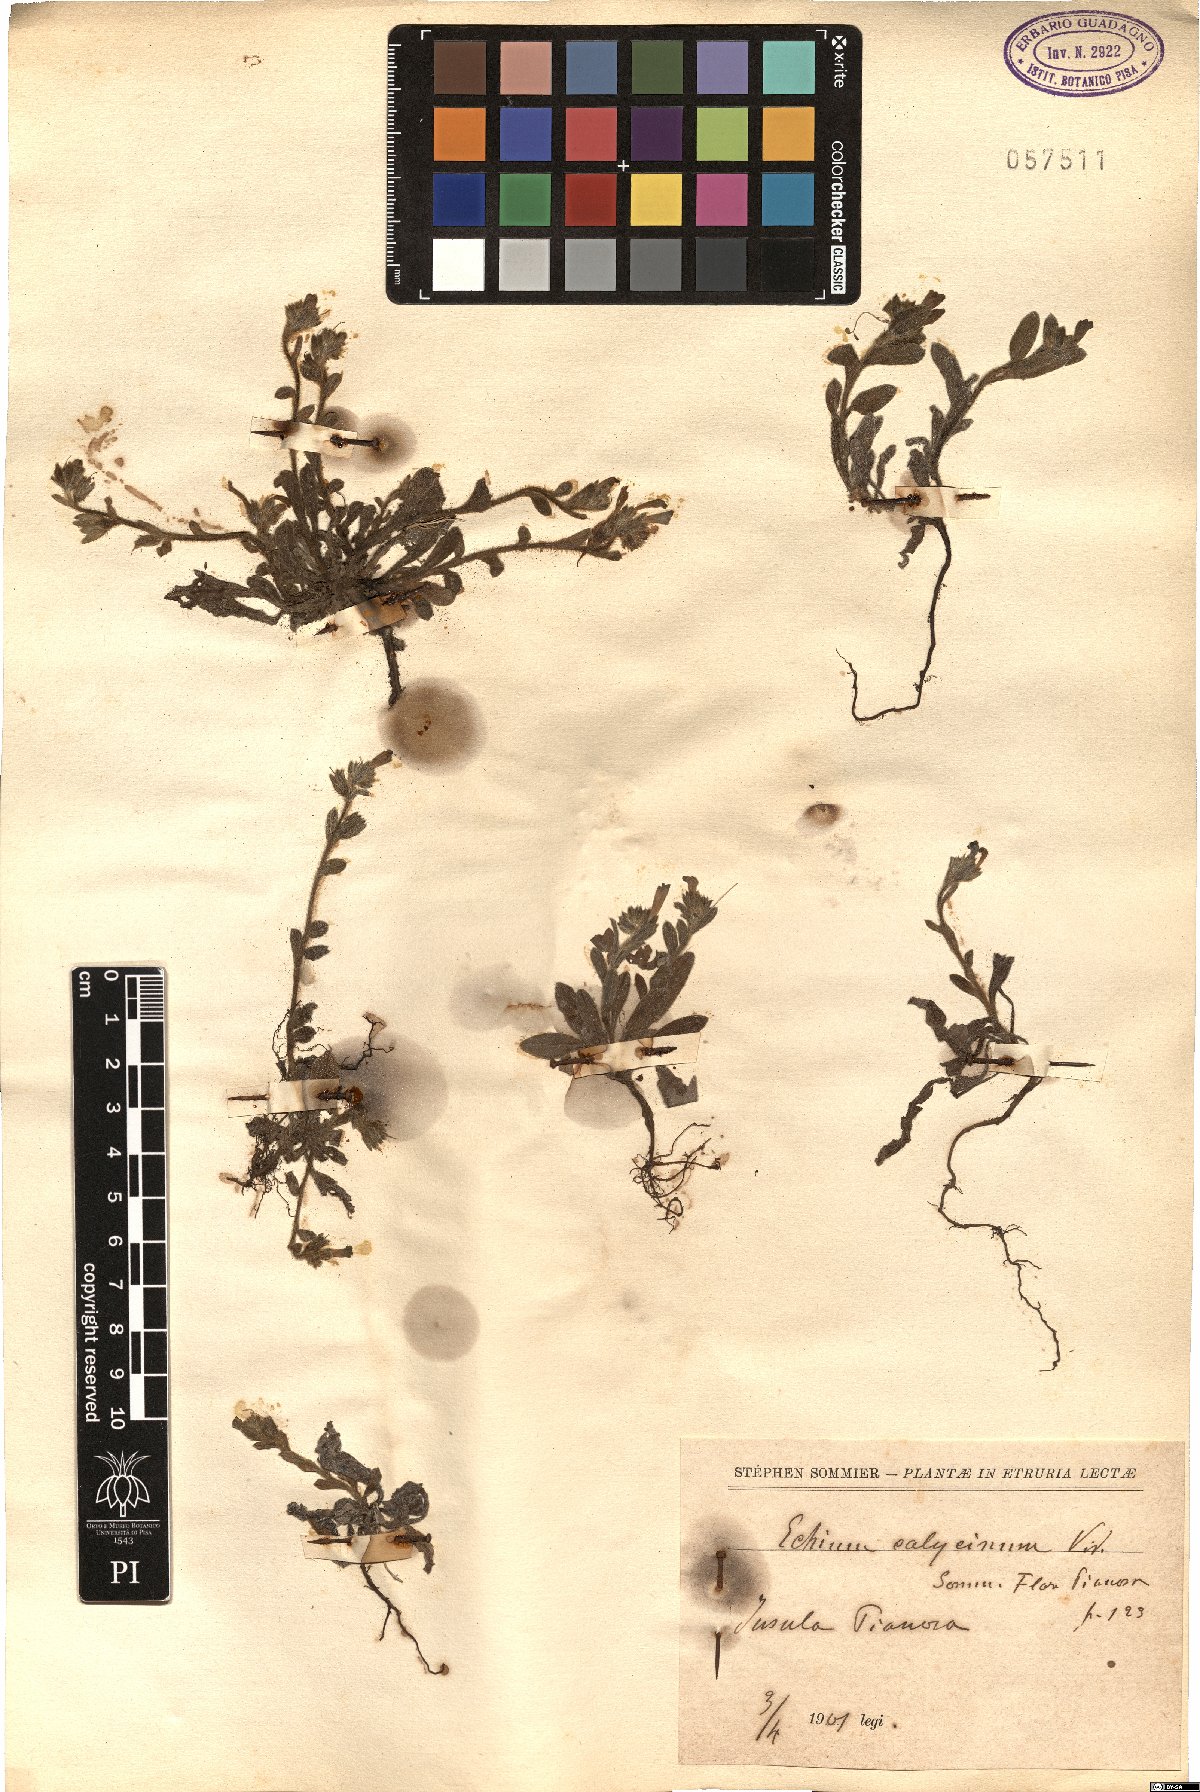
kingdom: Plantae
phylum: Tracheophyta
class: Magnoliopsida
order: Boraginales
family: Boraginaceae
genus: Echium
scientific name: Echium parviflorum
